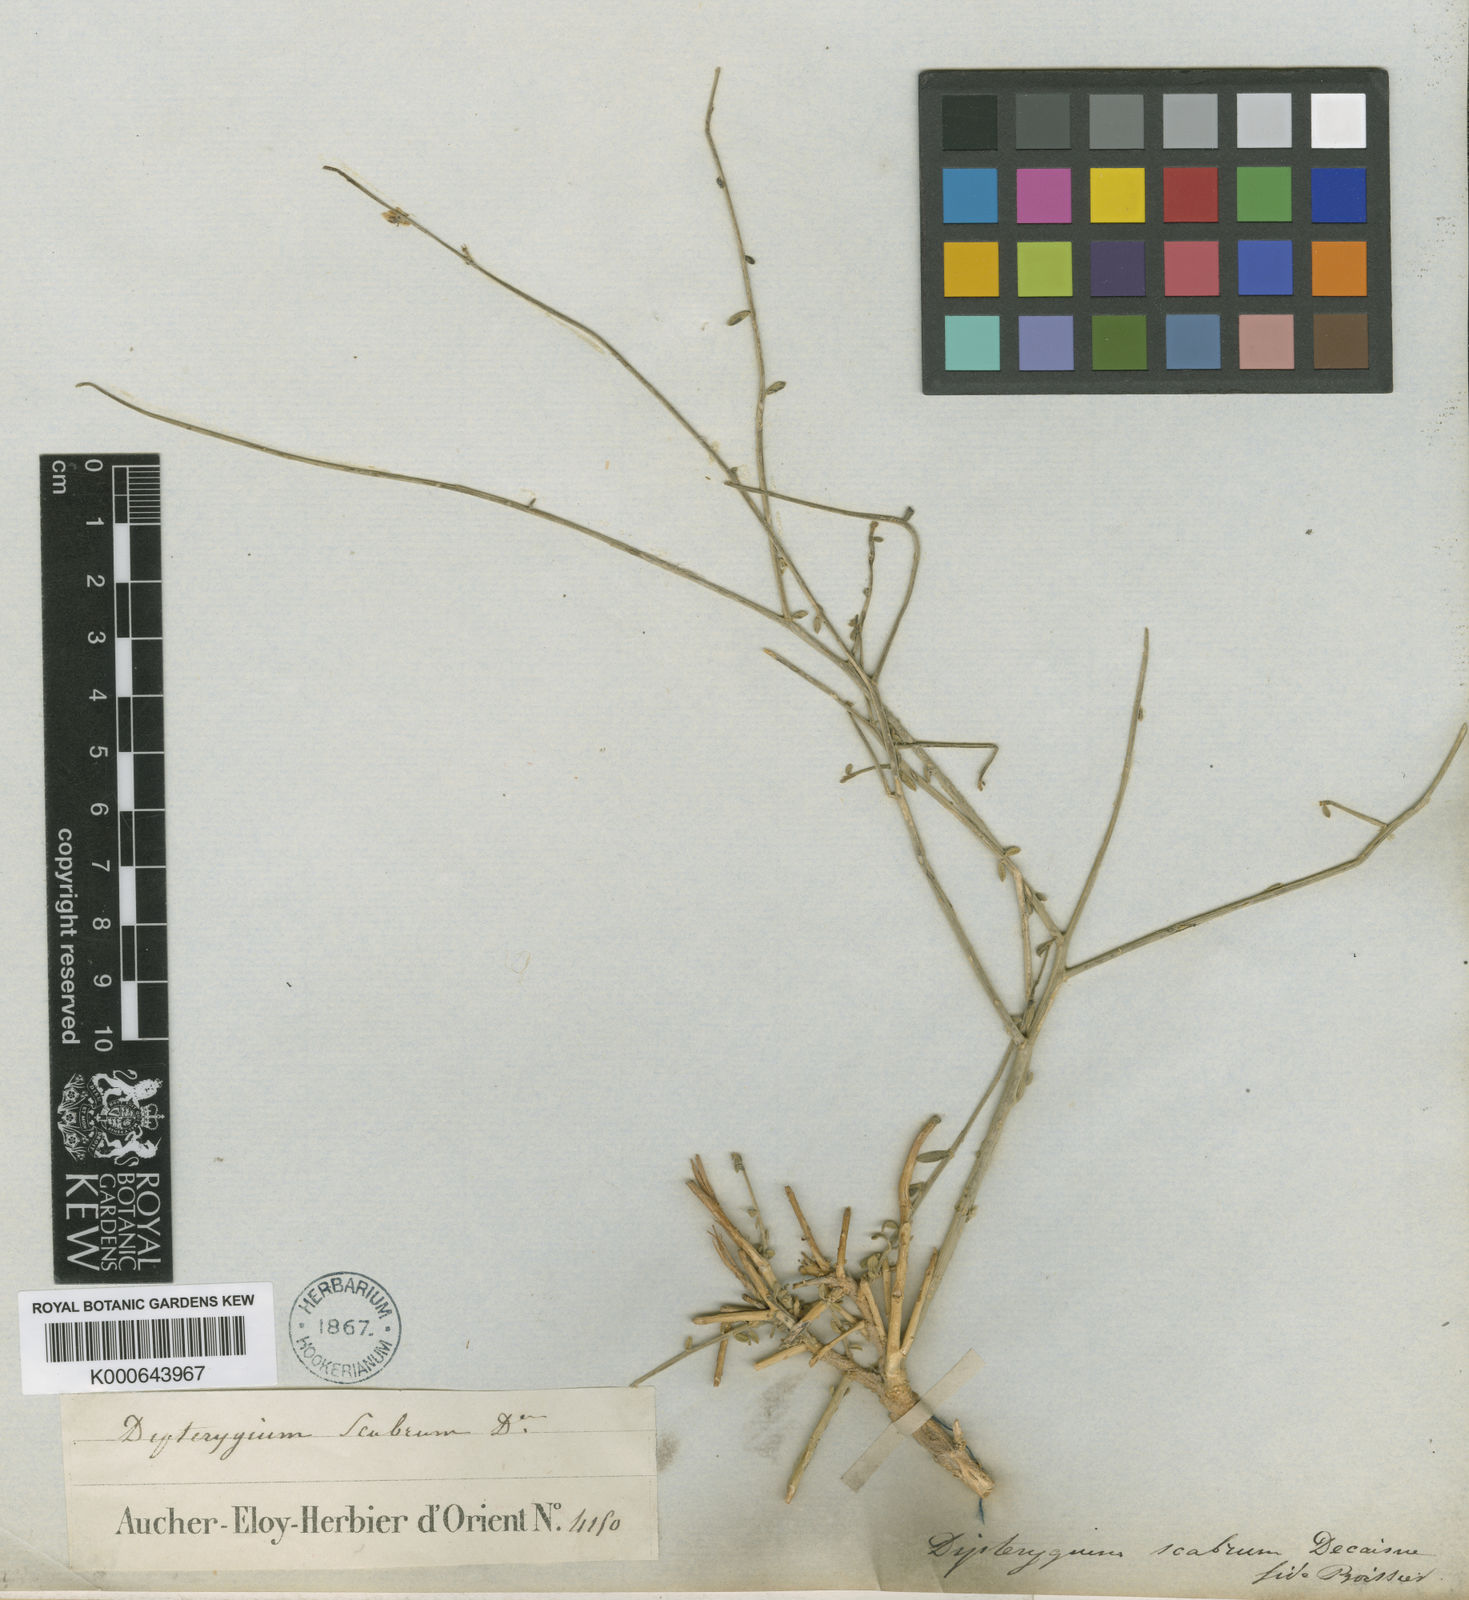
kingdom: Plantae
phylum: Tracheophyta
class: Magnoliopsida
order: Brassicales
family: Cleomaceae
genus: Dipterygium
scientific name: Dipterygium glaucum
